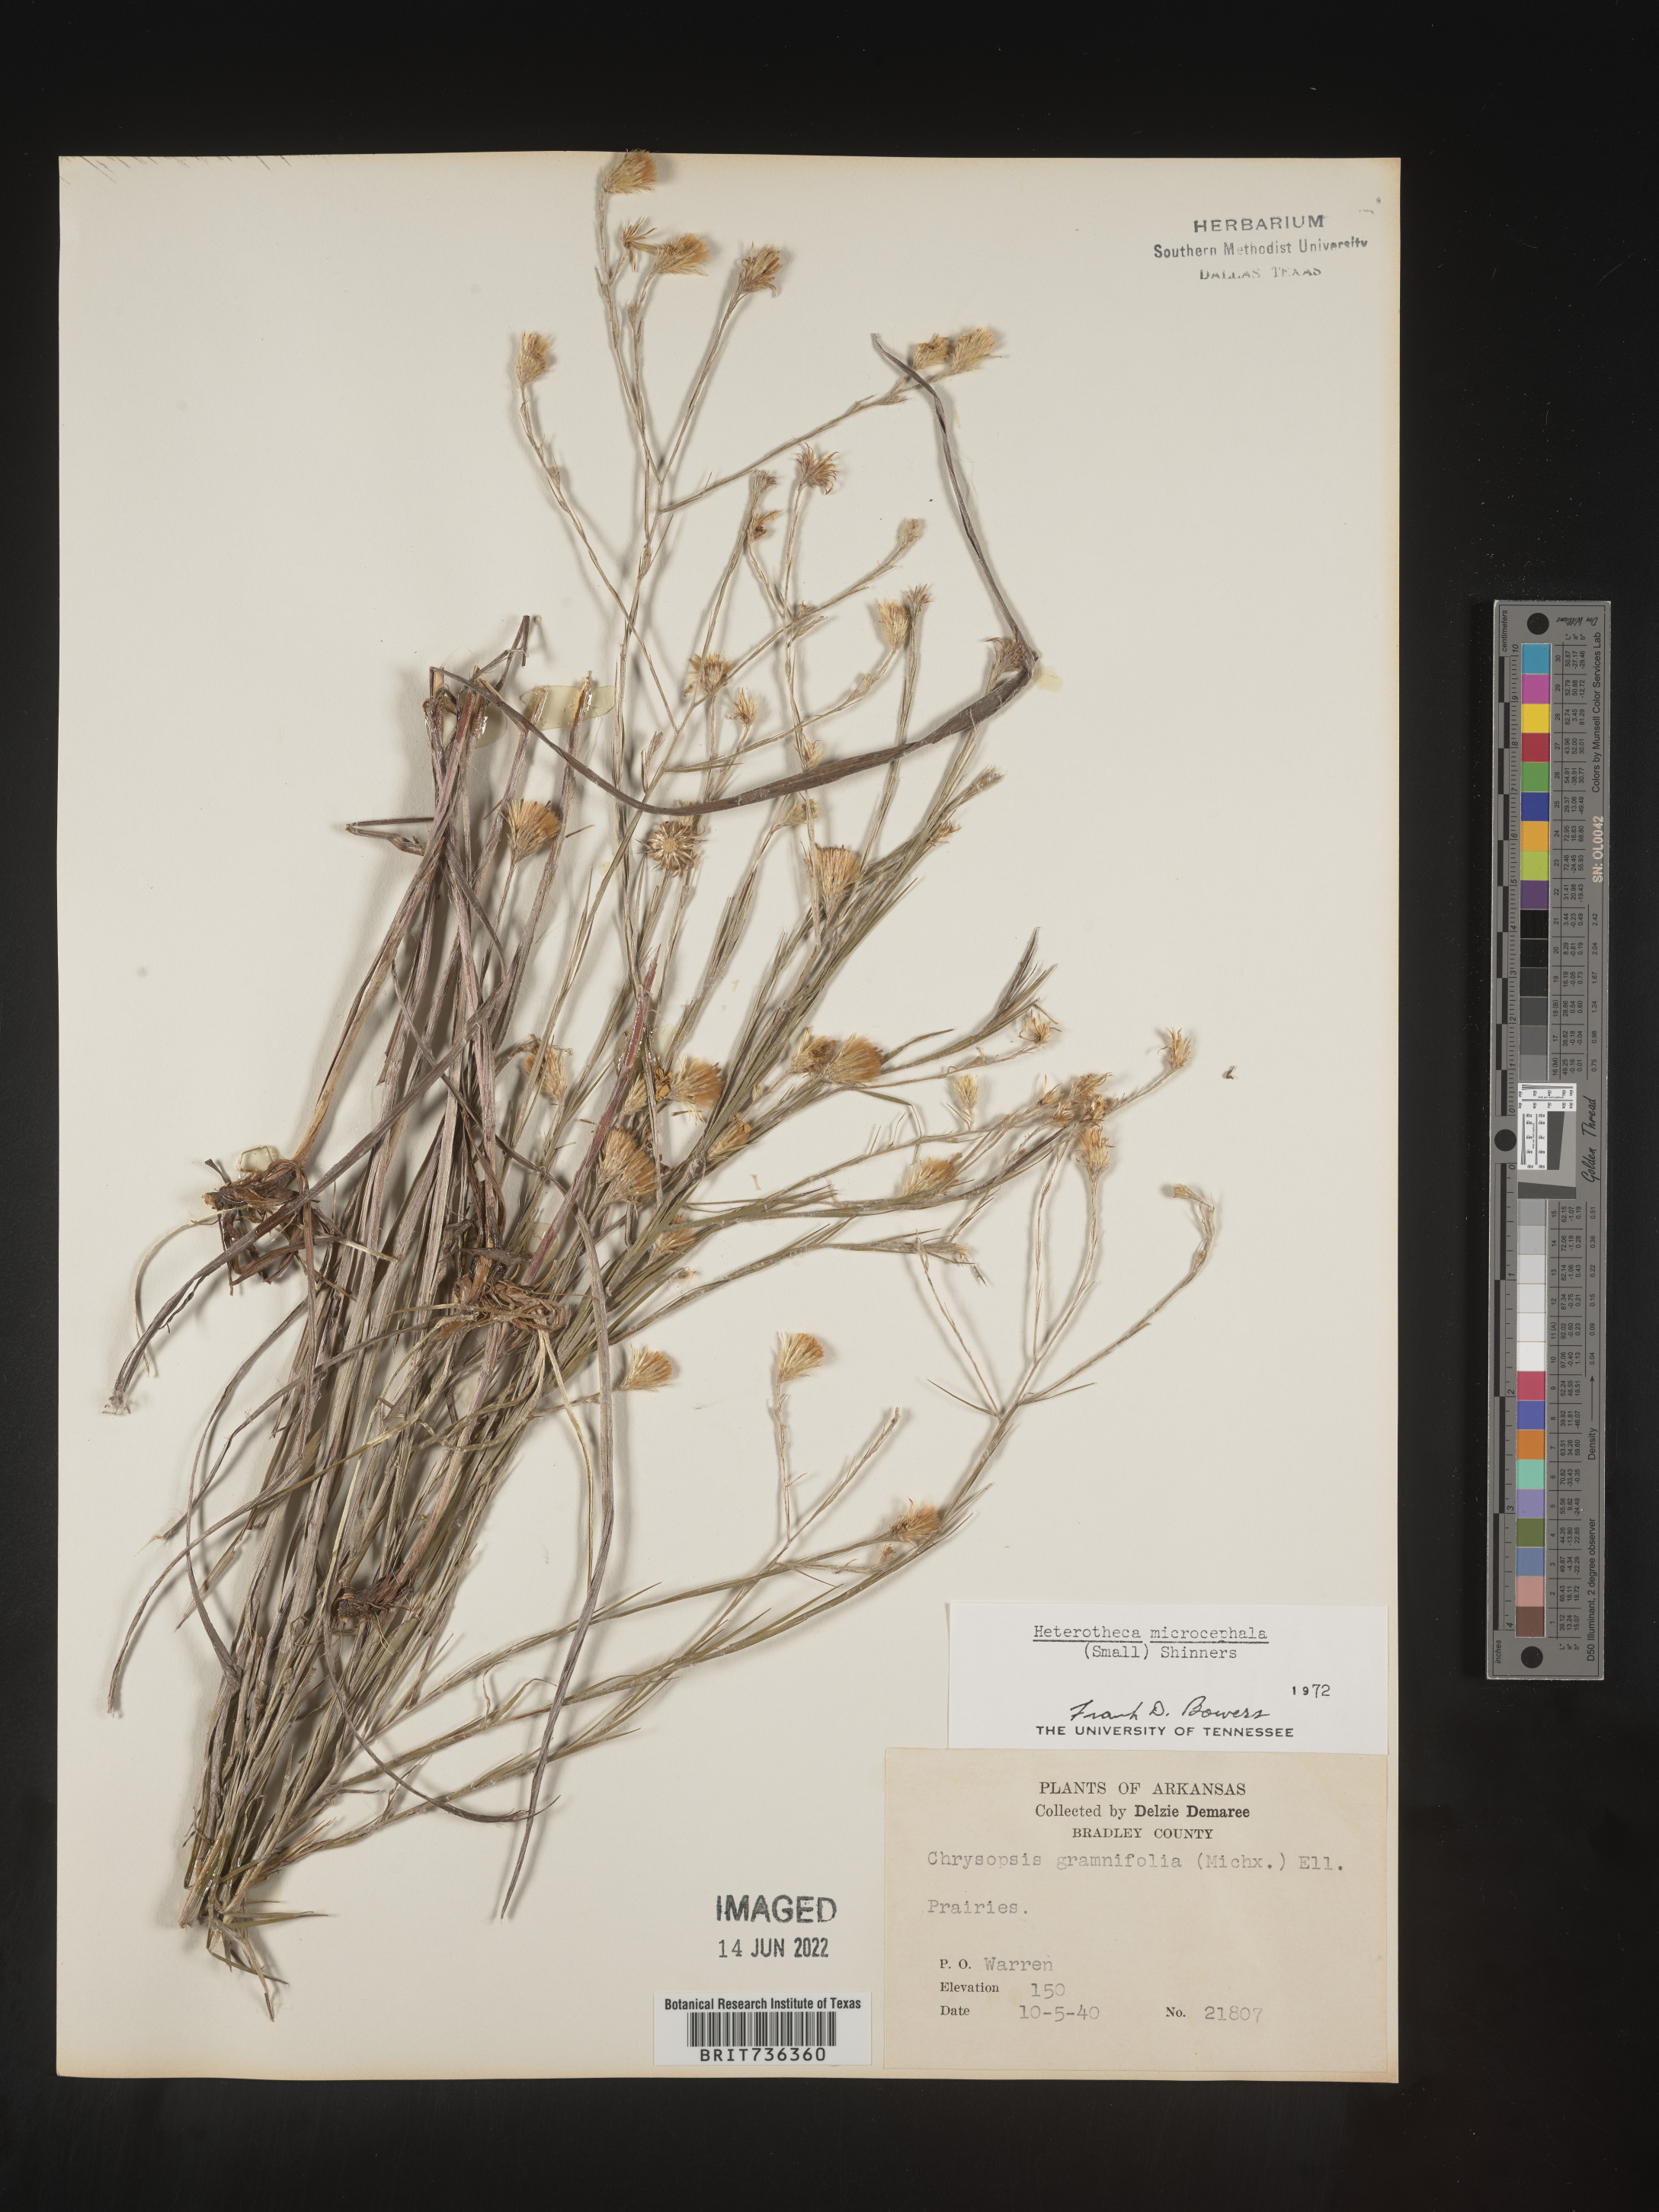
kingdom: Plantae
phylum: Tracheophyta
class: Magnoliopsida
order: Asterales
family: Asteraceae
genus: Pityopsis
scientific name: Pityopsis tenuifolia
